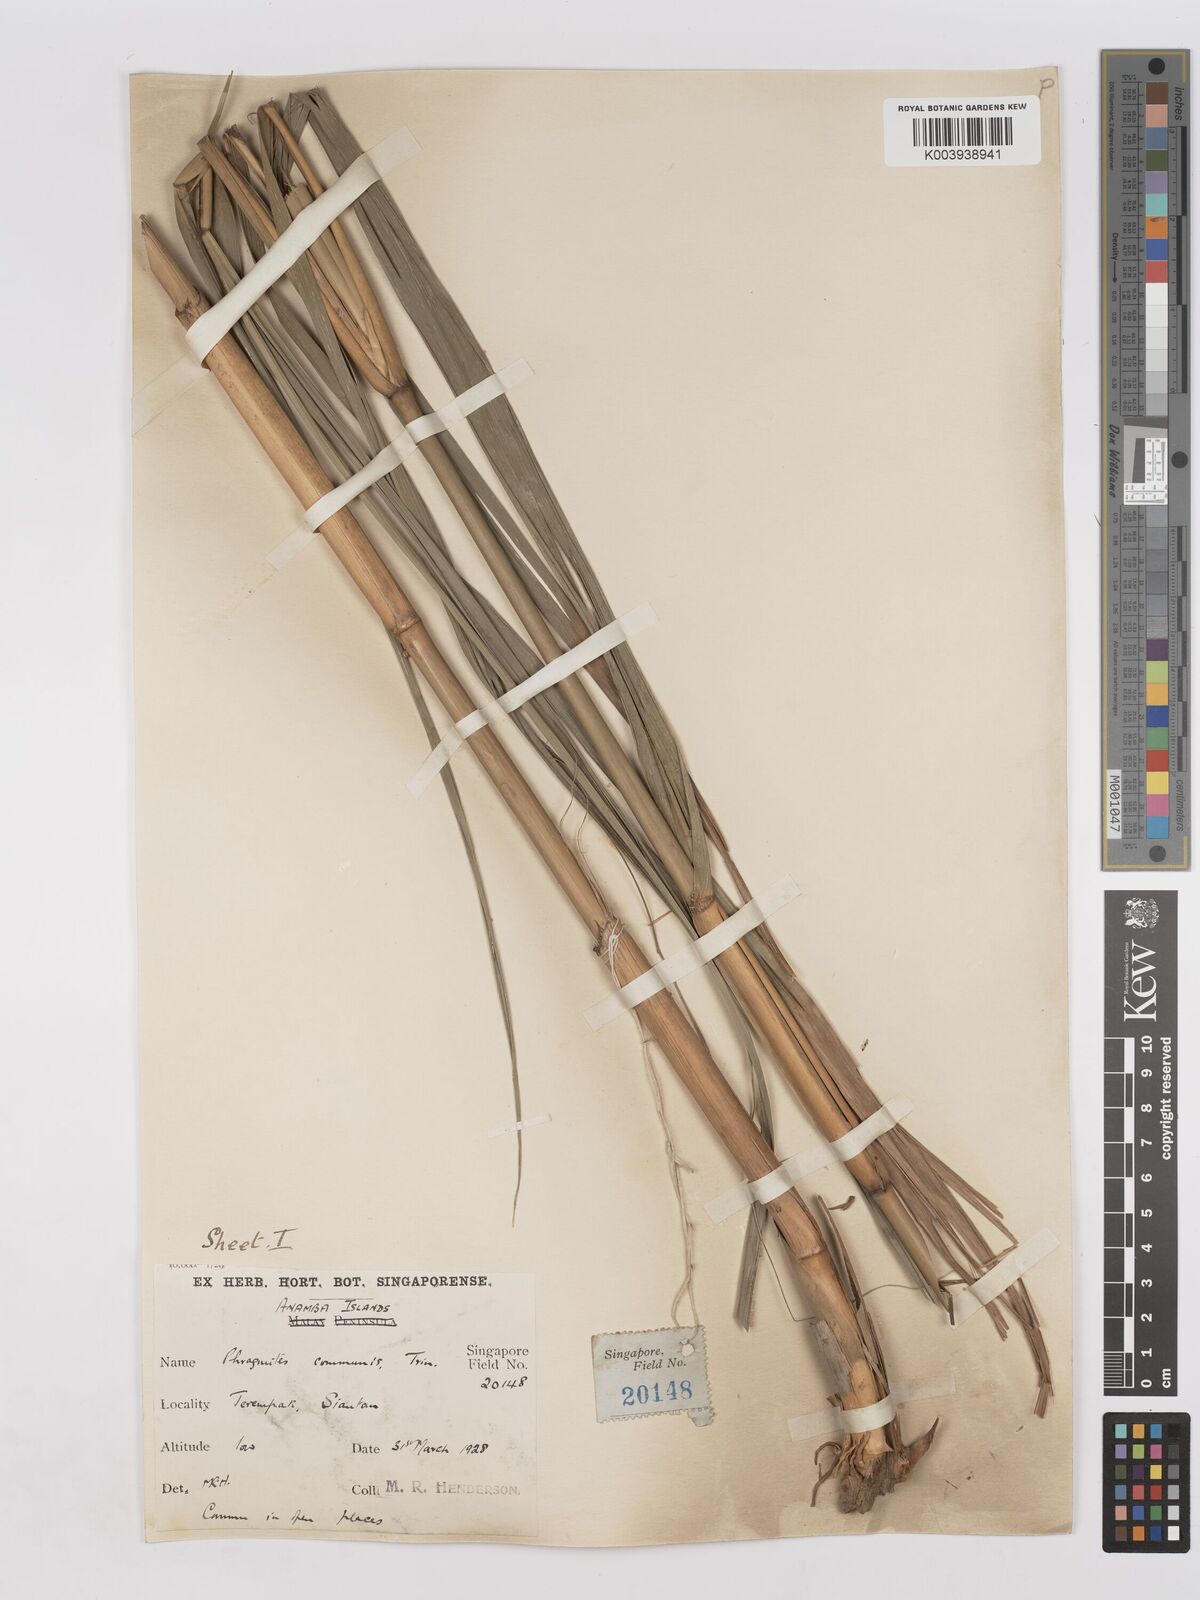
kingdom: Plantae
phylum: Tracheophyta
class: Liliopsida
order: Poales
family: Poaceae
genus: Phragmites
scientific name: Phragmites
